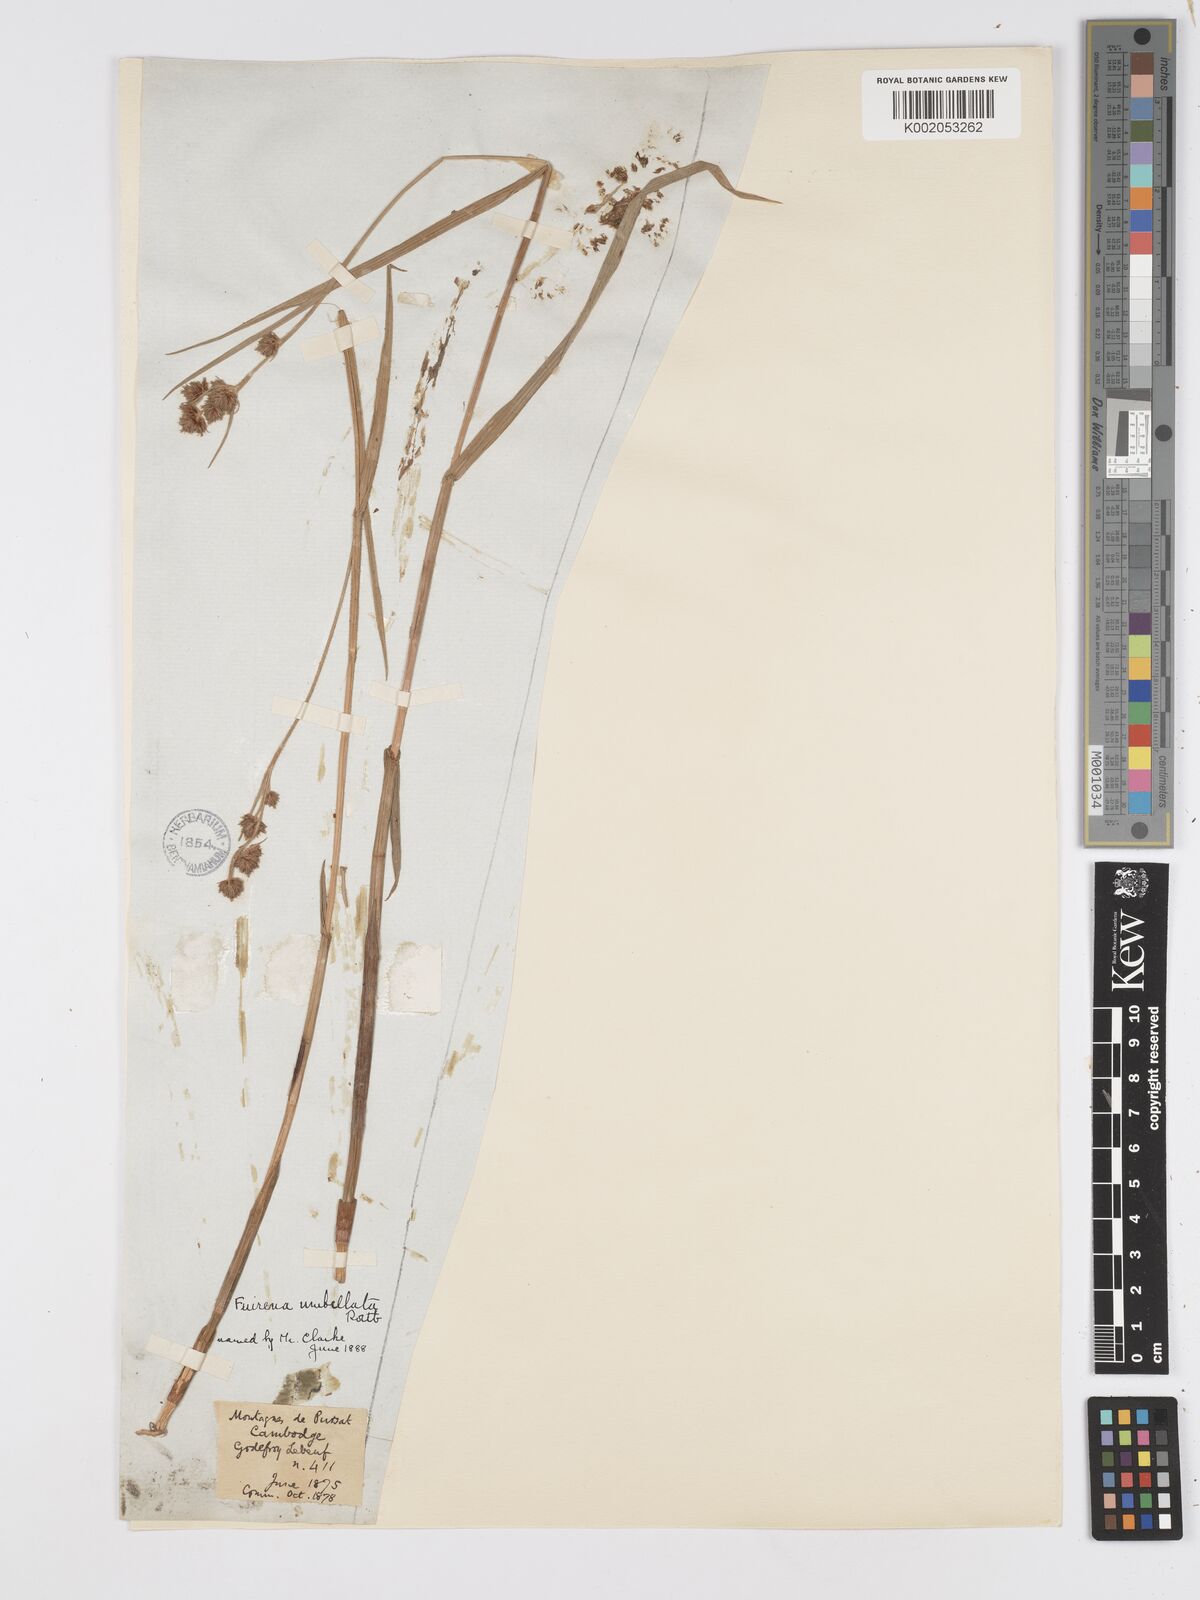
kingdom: Plantae
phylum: Tracheophyta
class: Liliopsida
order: Poales
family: Cyperaceae
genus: Fuirena
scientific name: Fuirena umbellata
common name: Yefen
